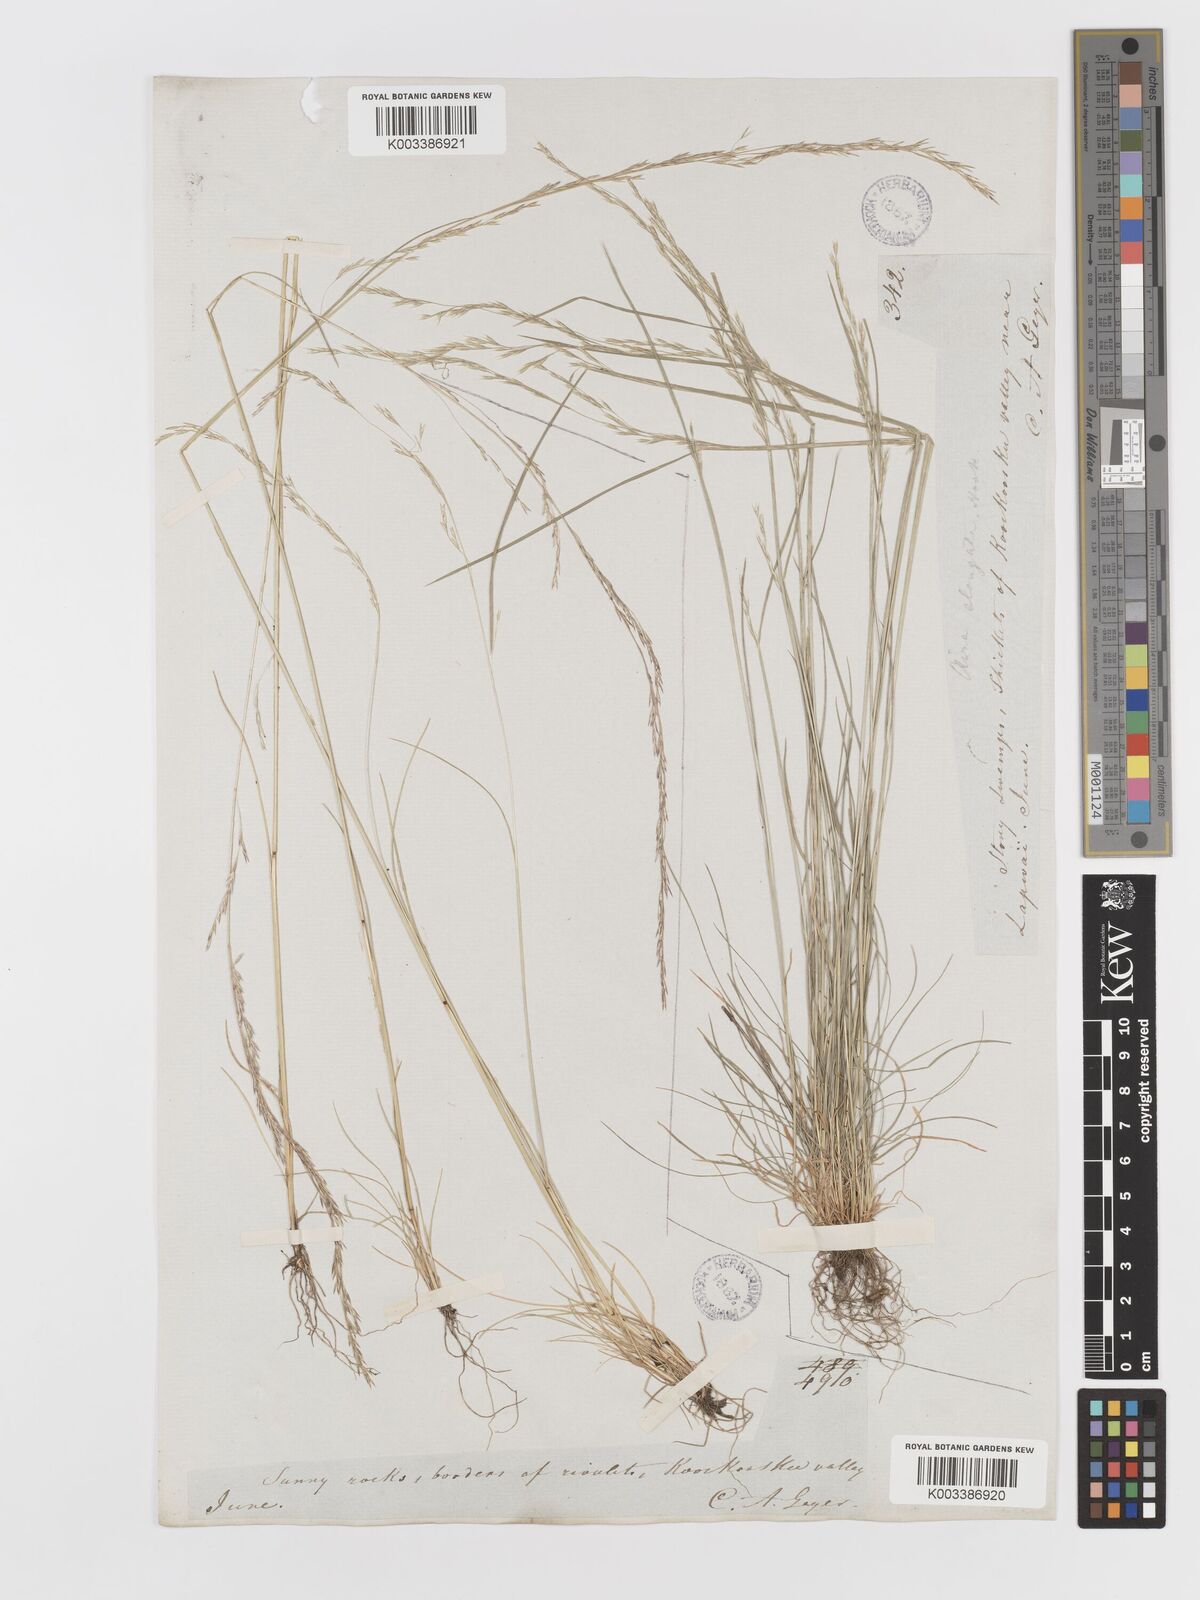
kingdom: Plantae
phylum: Tracheophyta
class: Liliopsida
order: Poales
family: Poaceae
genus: Deschampsia
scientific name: Deschampsia elongata
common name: Slender hairgrass
